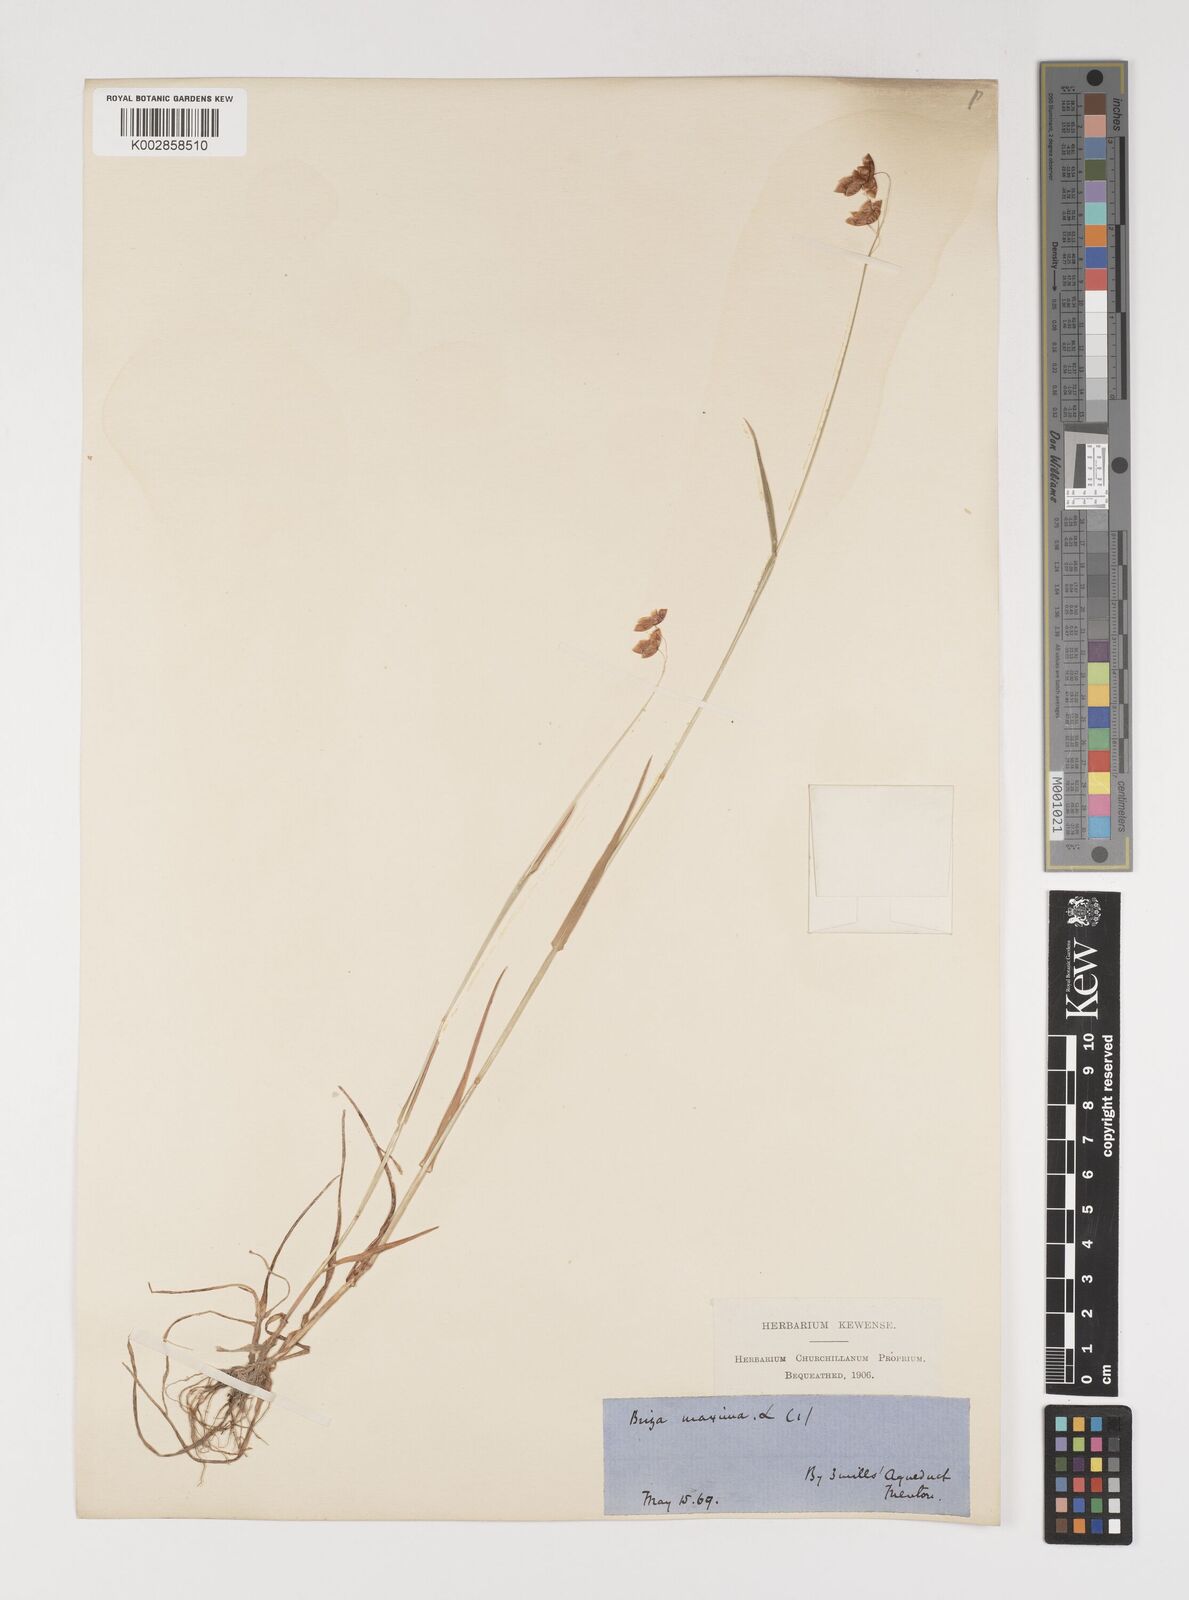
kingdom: Plantae
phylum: Tracheophyta
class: Liliopsida
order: Poales
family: Poaceae
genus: Briza
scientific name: Briza maxima
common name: Big quakinggrass
